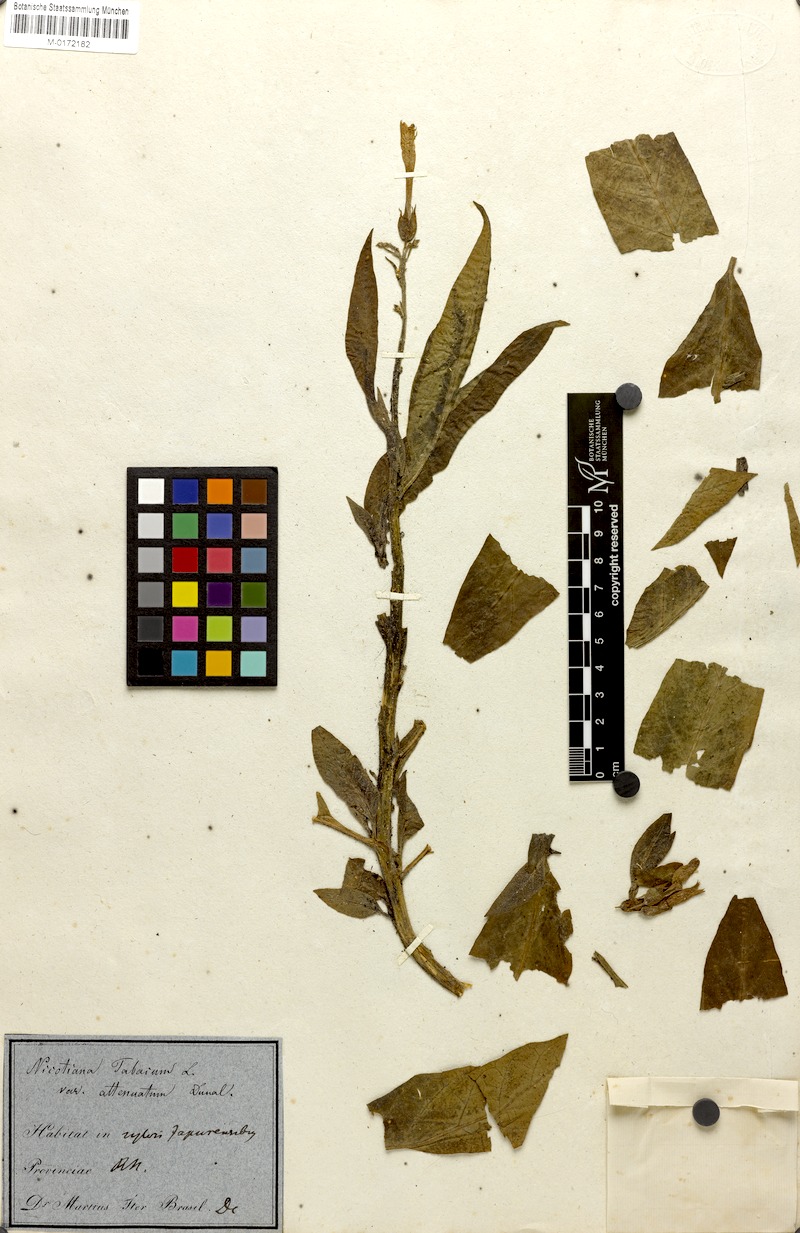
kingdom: Plantae
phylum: Tracheophyta
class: Magnoliopsida
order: Solanales
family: Solanaceae
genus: Nicotiana
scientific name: Nicotiana tabacum
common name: Tobacco
